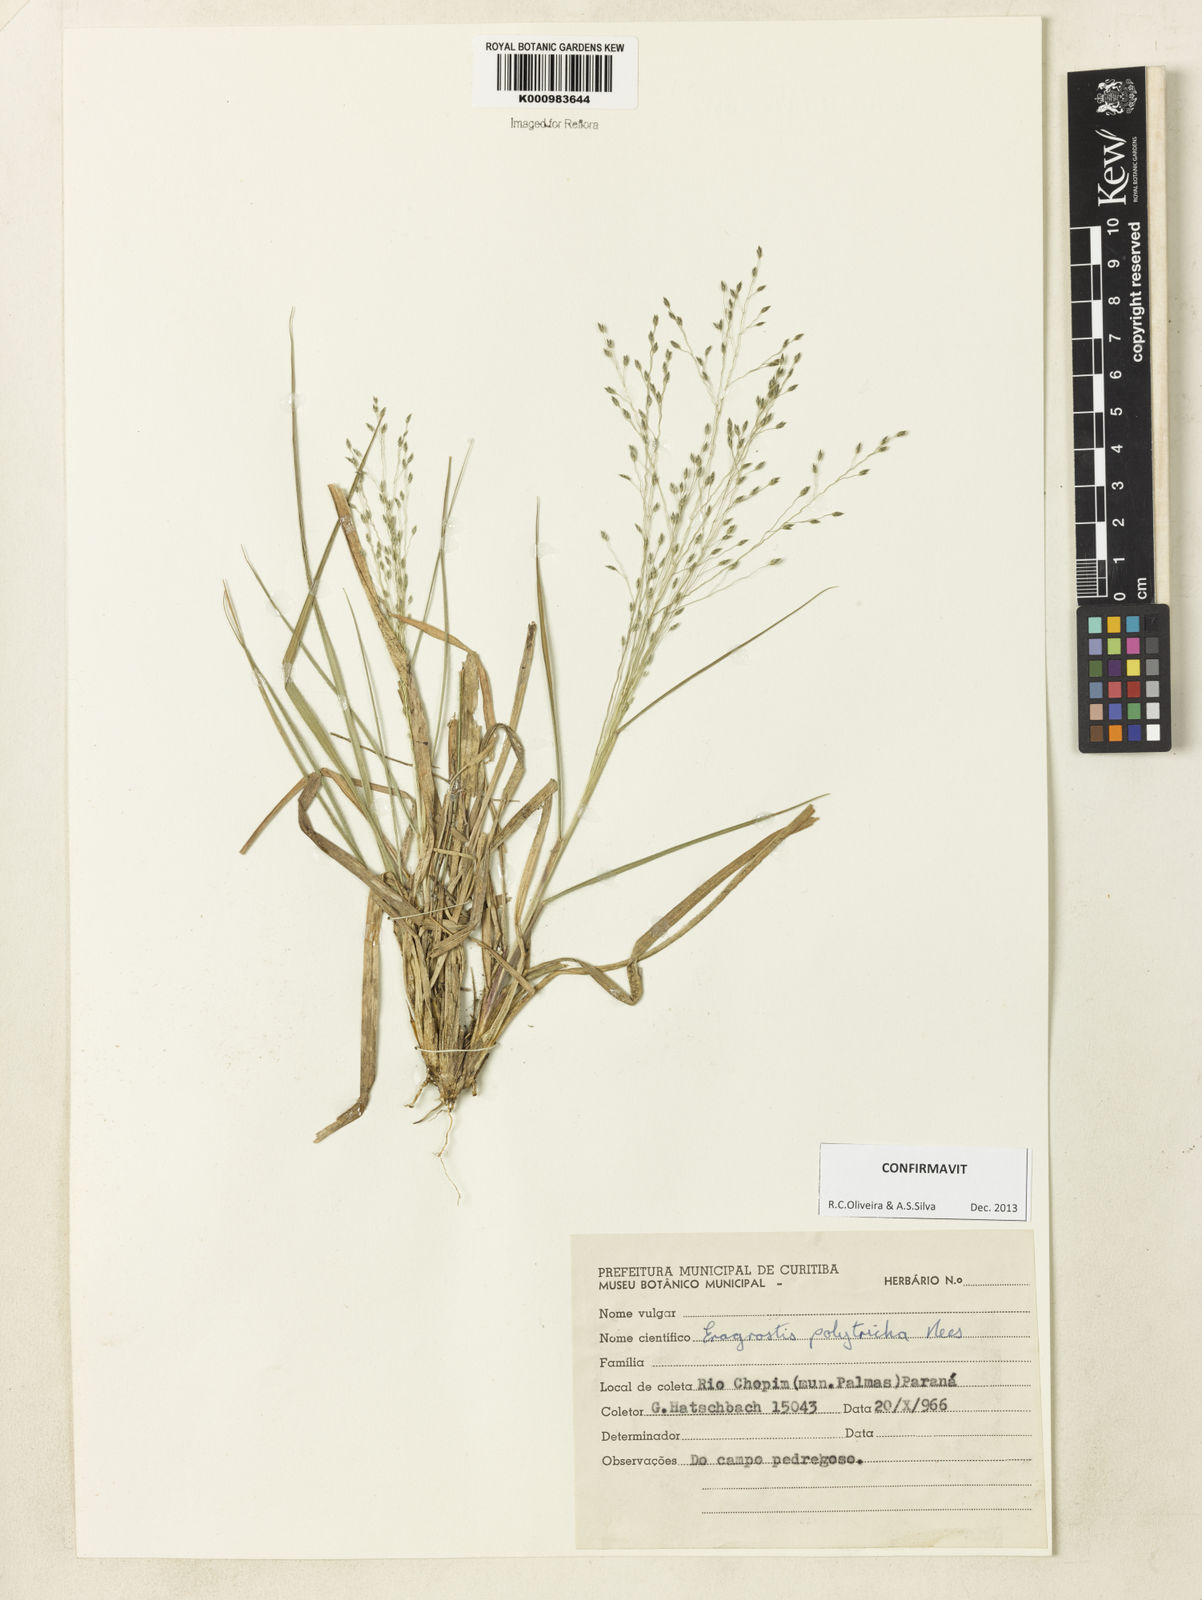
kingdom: Plantae
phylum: Tracheophyta
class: Liliopsida
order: Poales
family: Poaceae
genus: Eragrostis
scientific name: Eragrostis polytricha
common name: Hairy-sheath love grass
